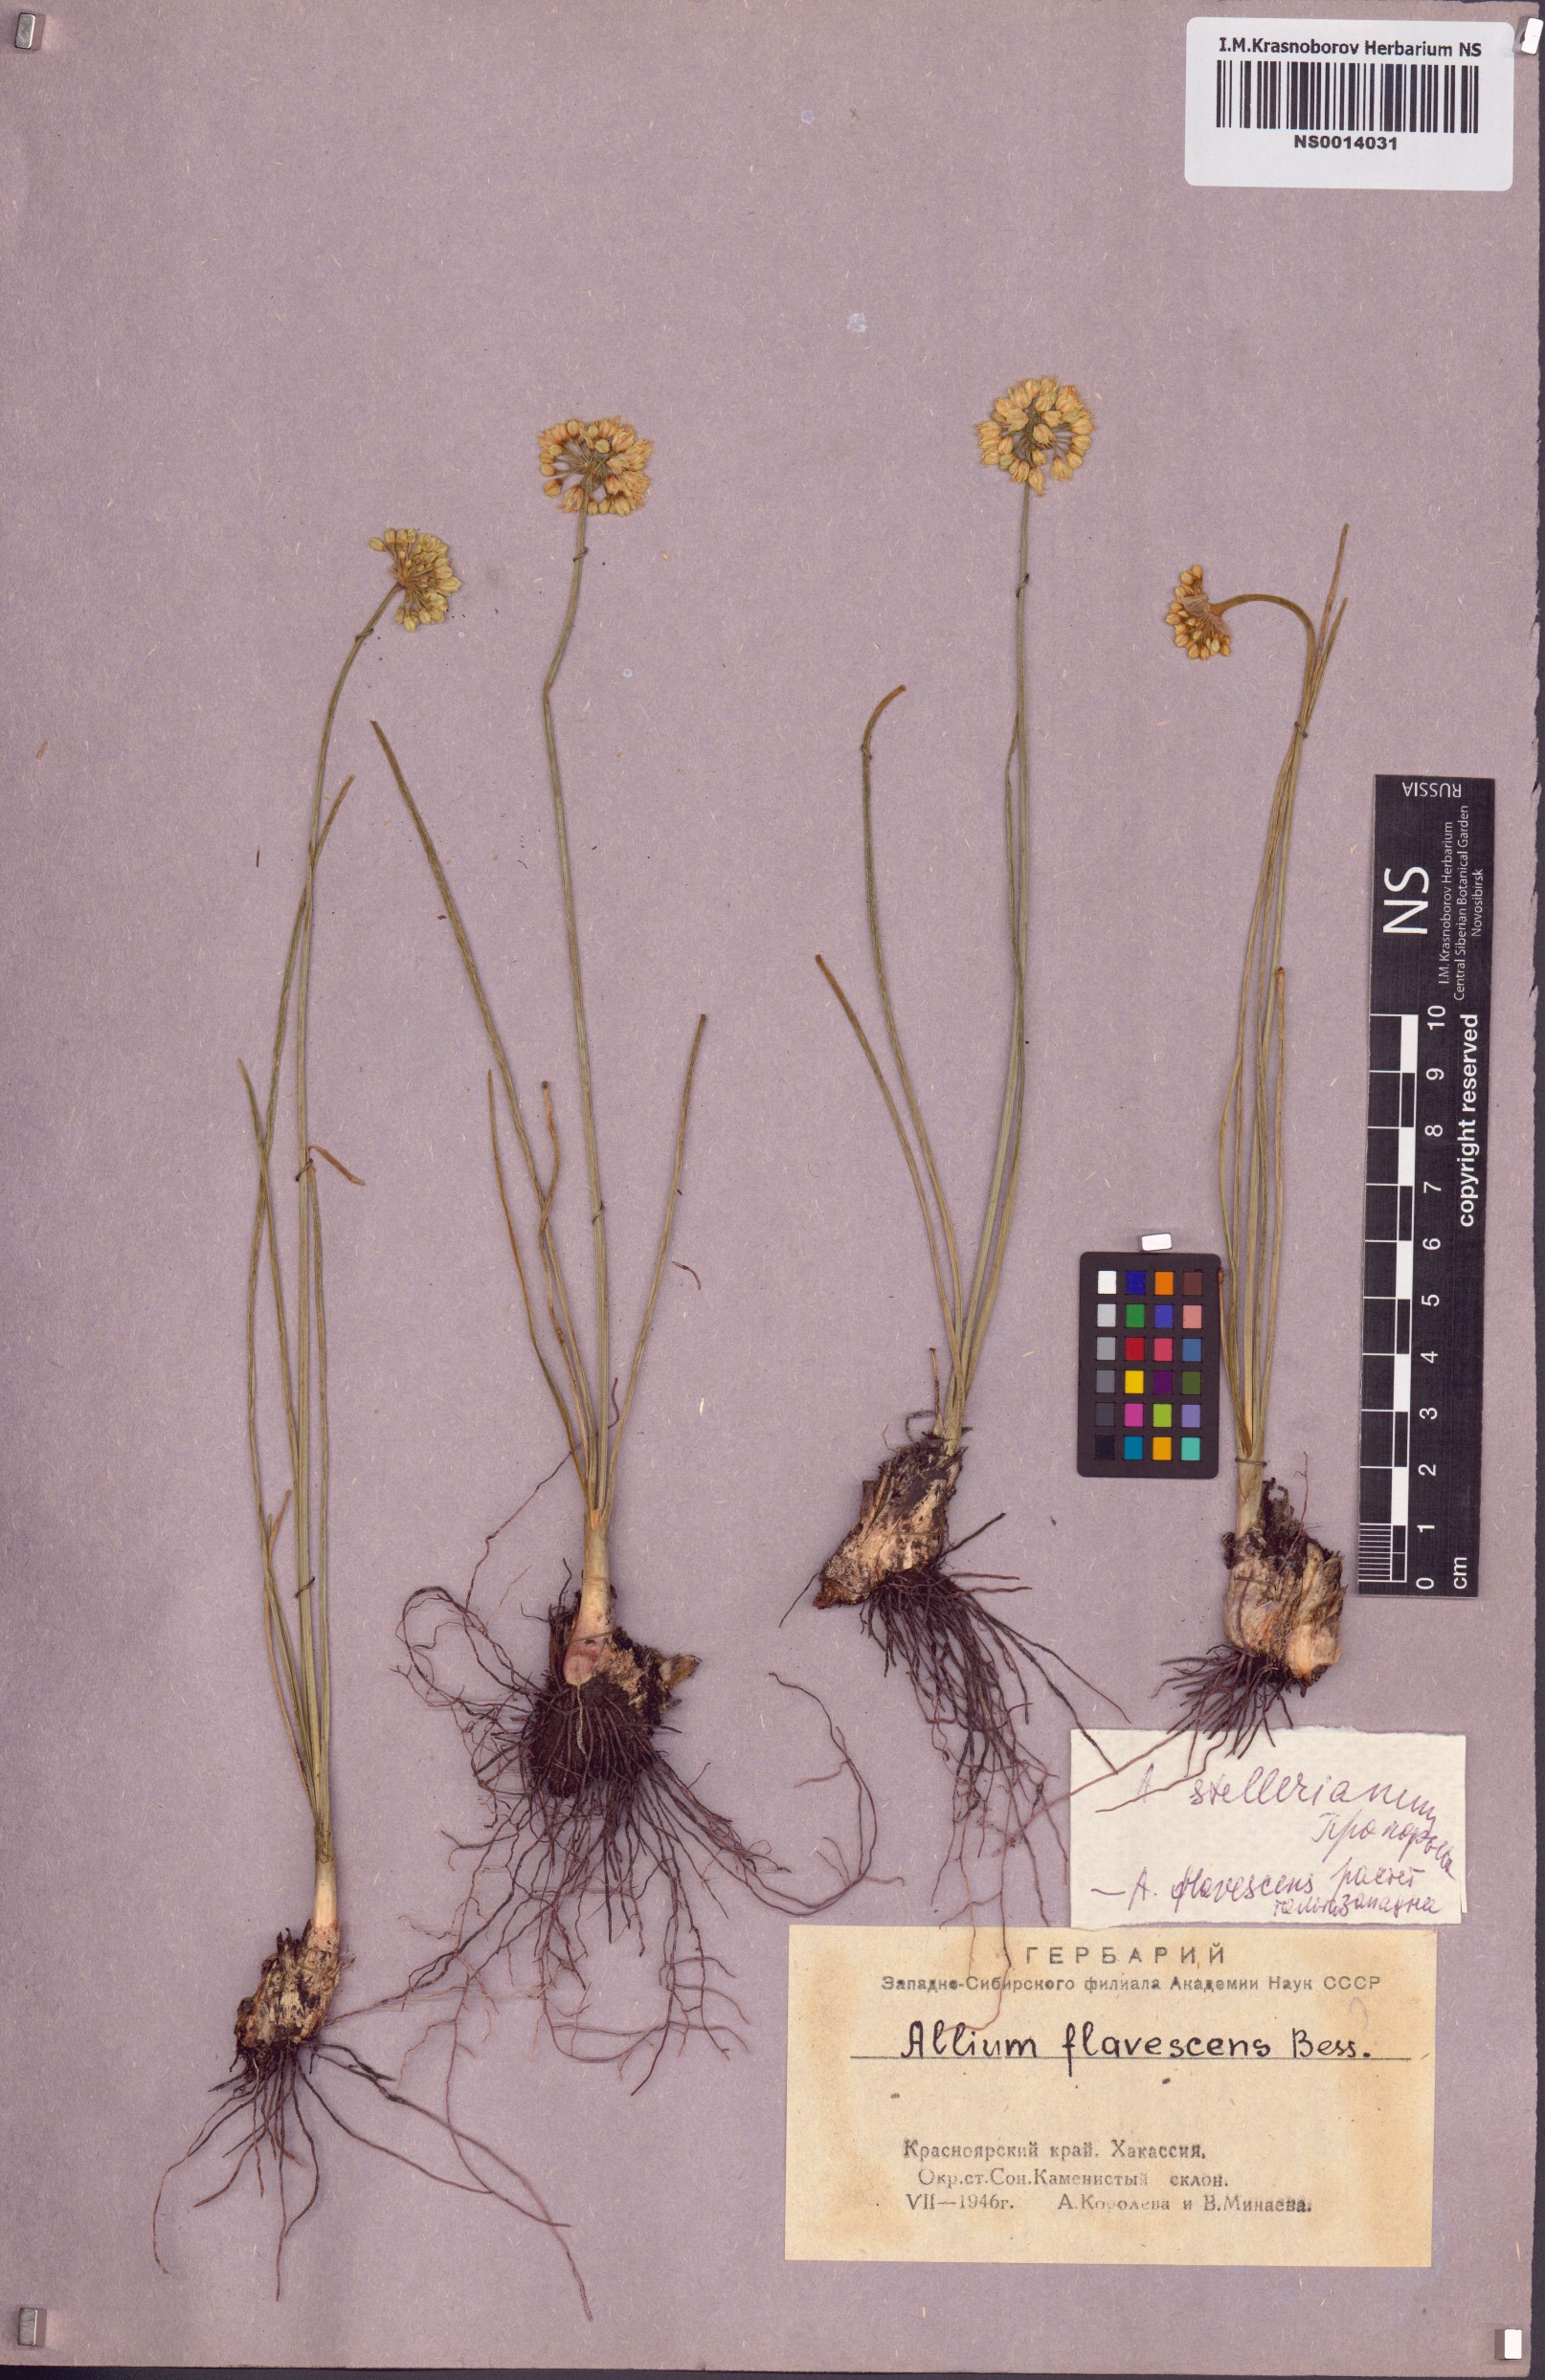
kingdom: Plantae
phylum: Tracheophyta
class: Liliopsida
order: Asparagales
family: Amaryllidaceae
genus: Allium
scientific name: Allium stellerianum
